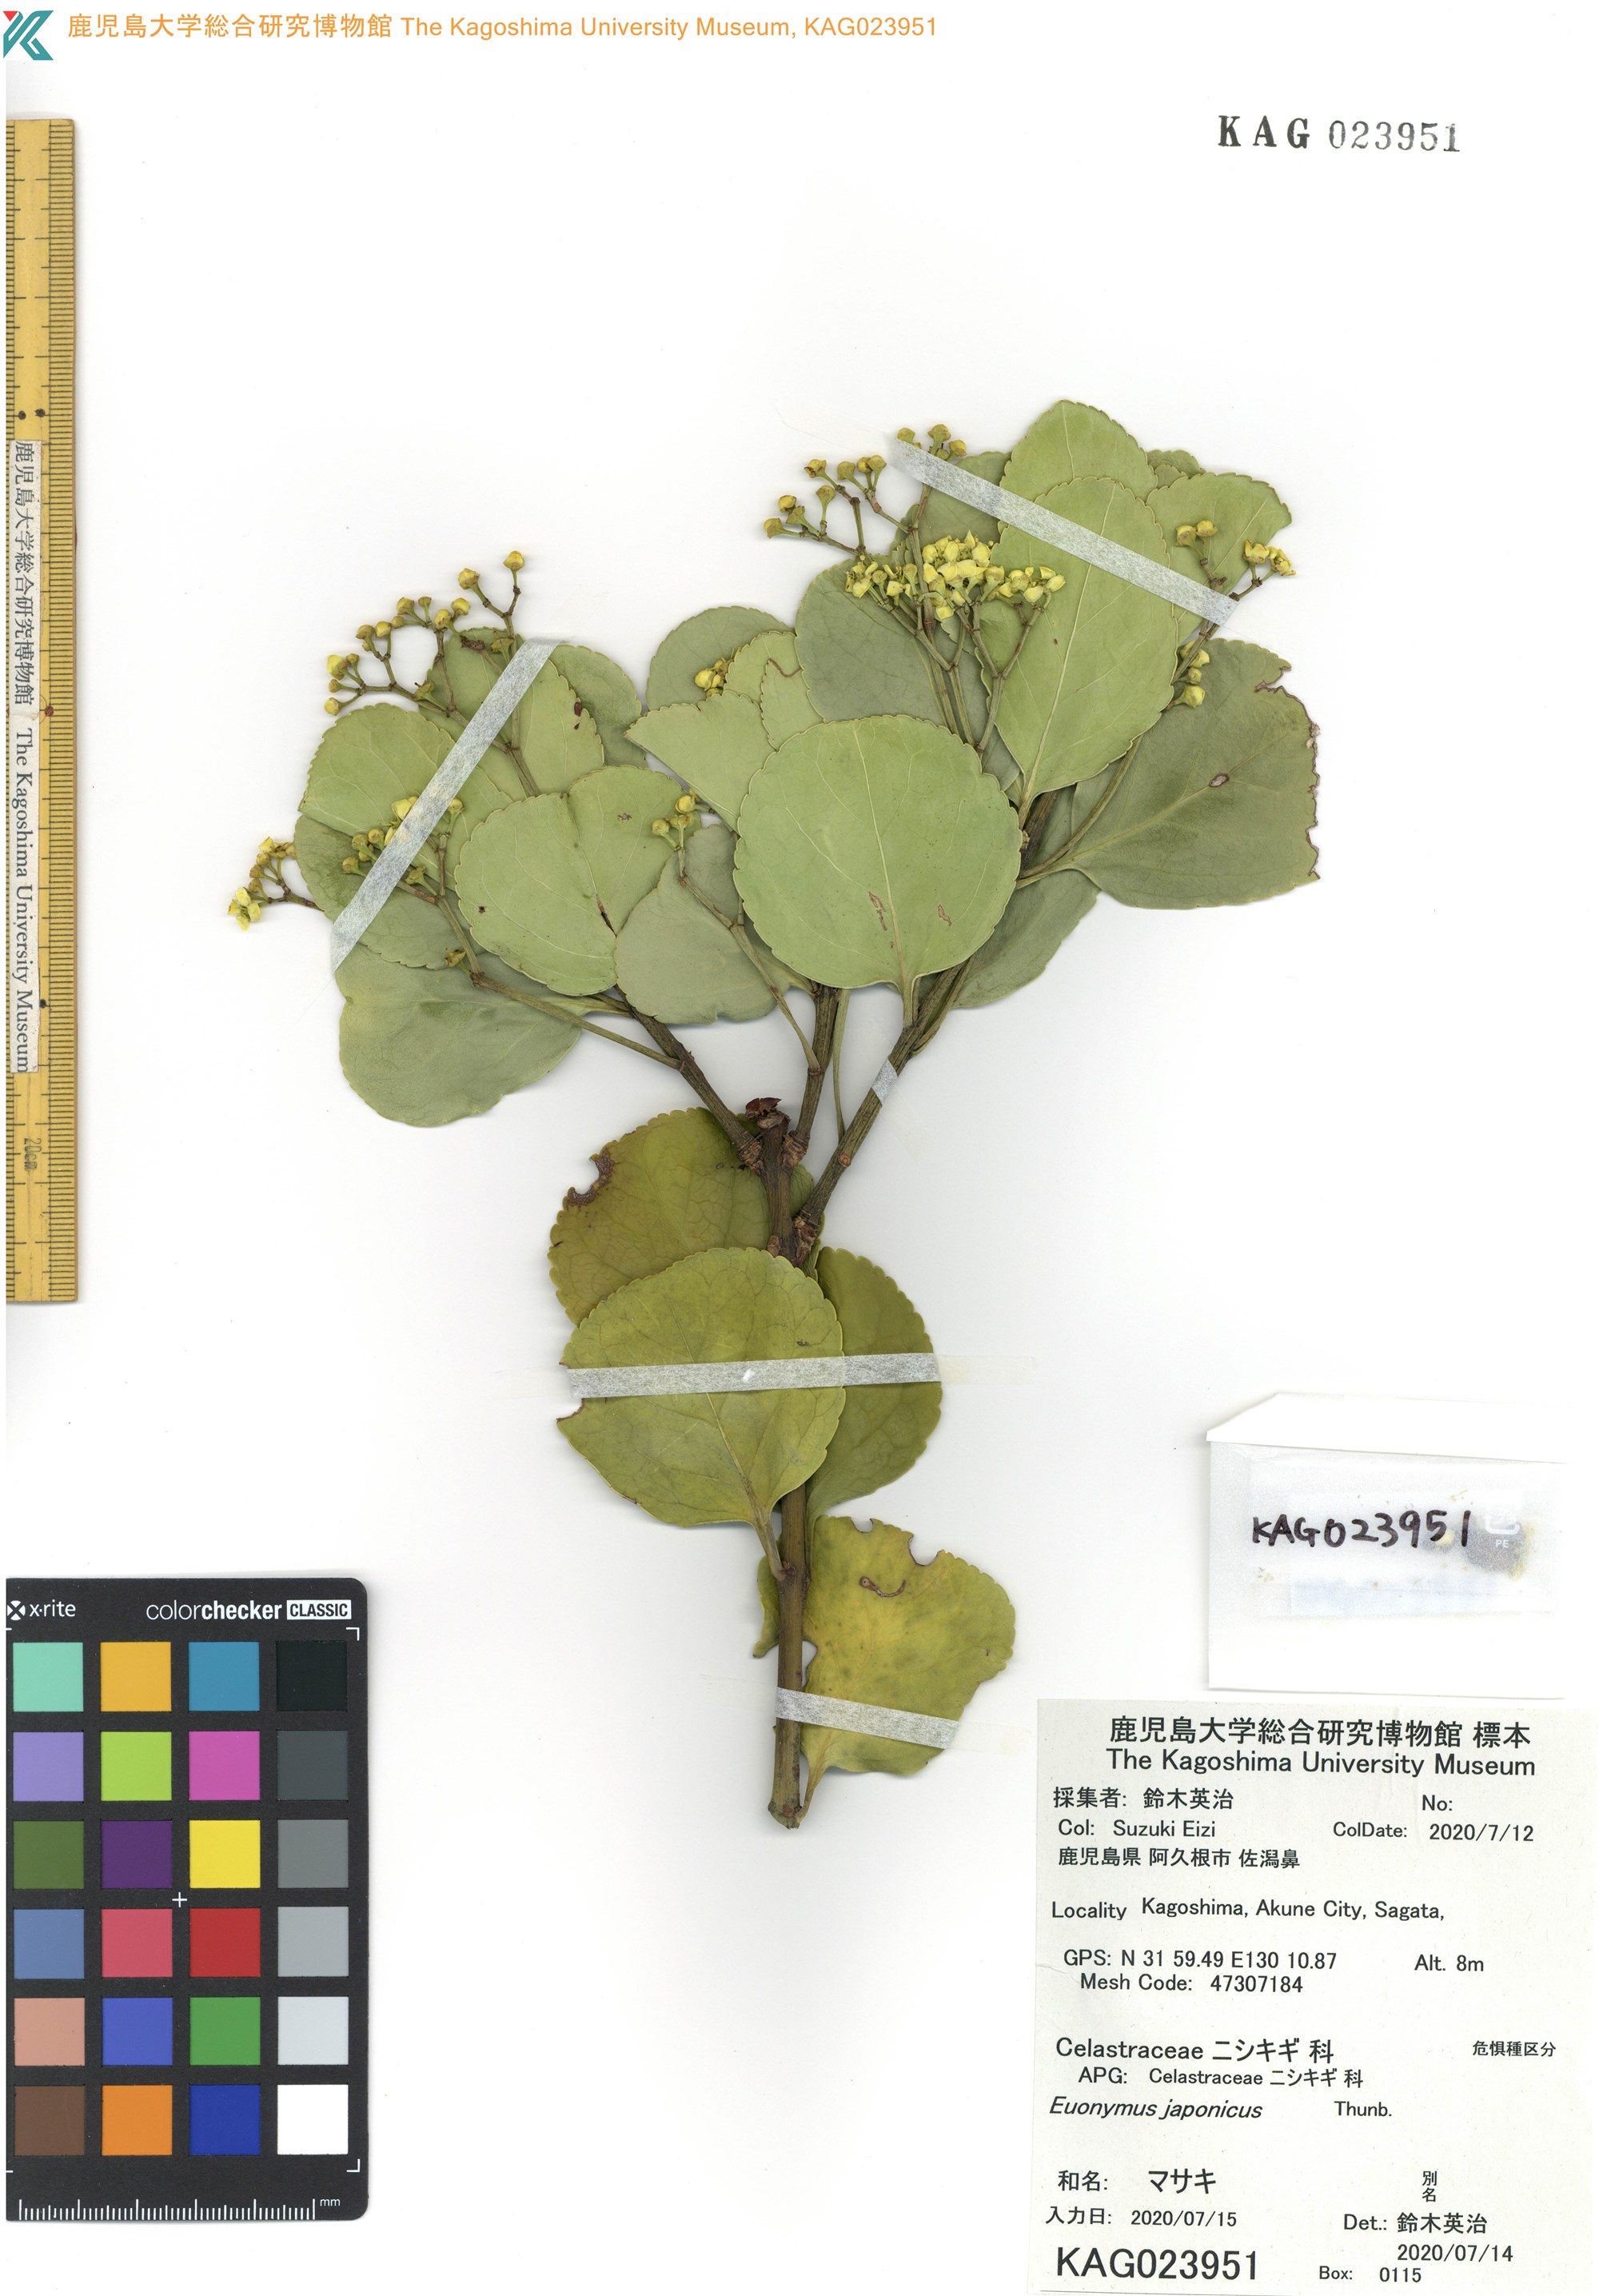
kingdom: Plantae
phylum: Tracheophyta
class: Magnoliopsida
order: Celastrales
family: Celastraceae
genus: Euonymus
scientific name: Euonymus japonicus
